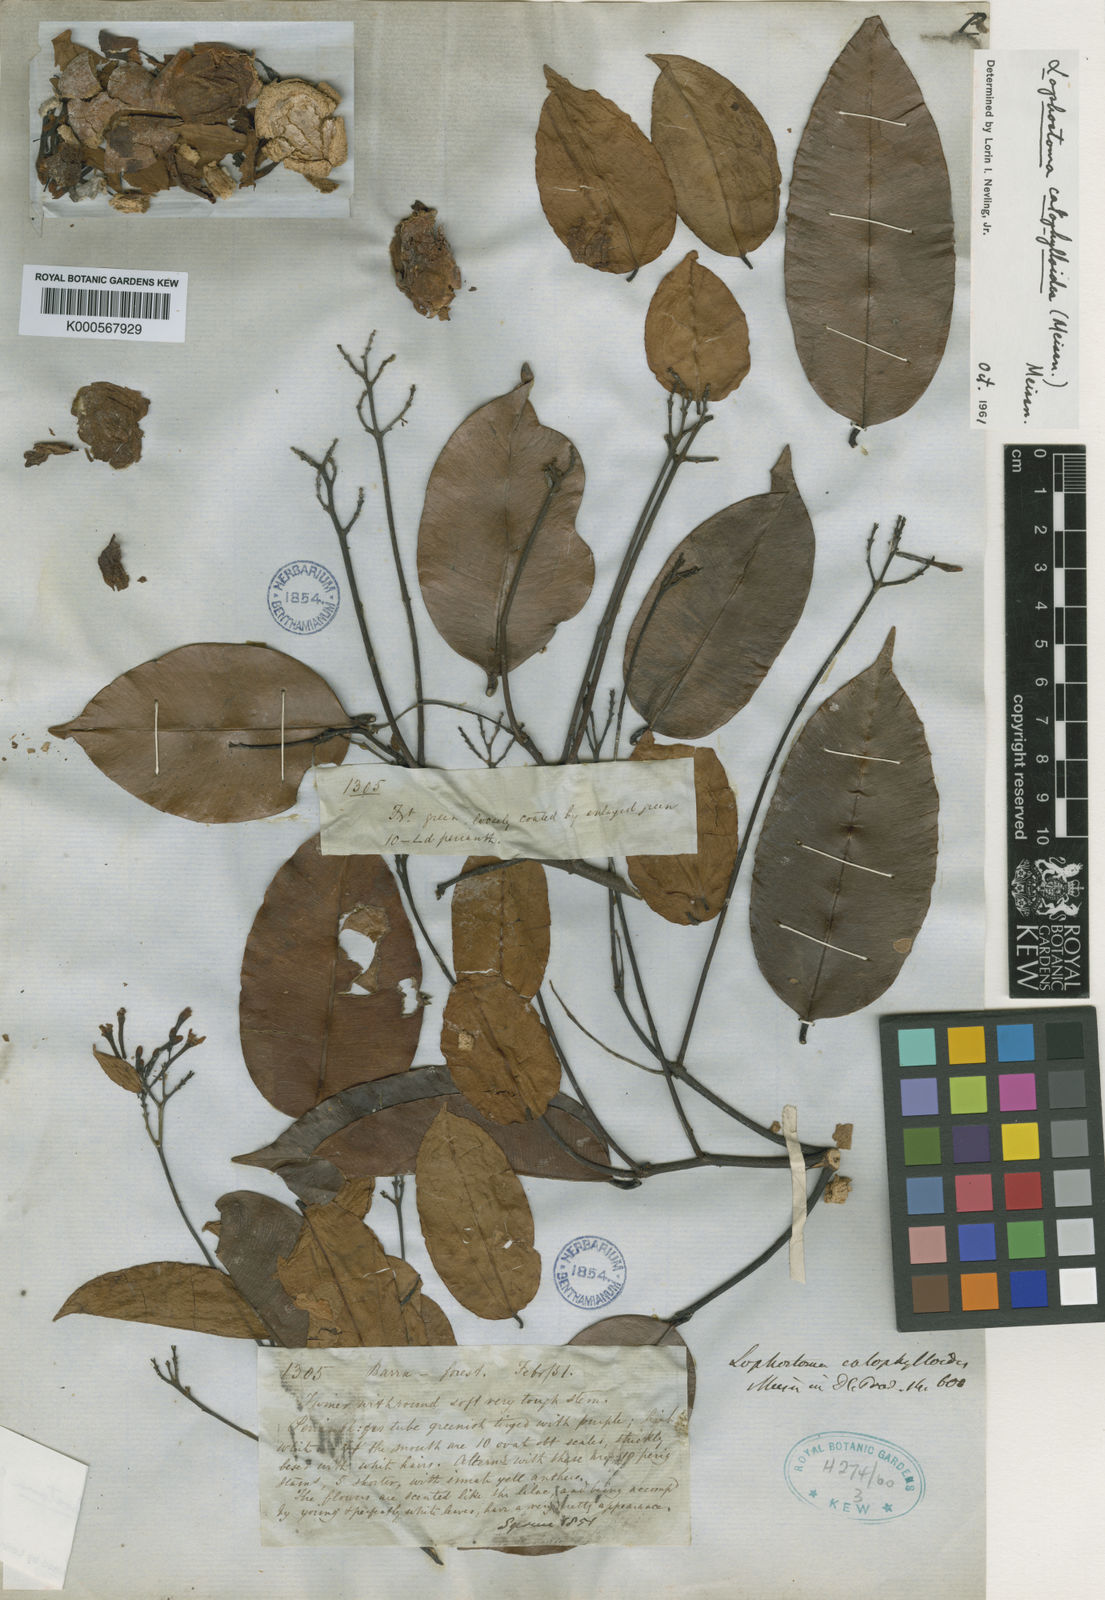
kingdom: Plantae
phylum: Tracheophyta
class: Magnoliopsida
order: Malvales
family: Thymelaeaceae
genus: Lophostoma
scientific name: Lophostoma calophylloides
